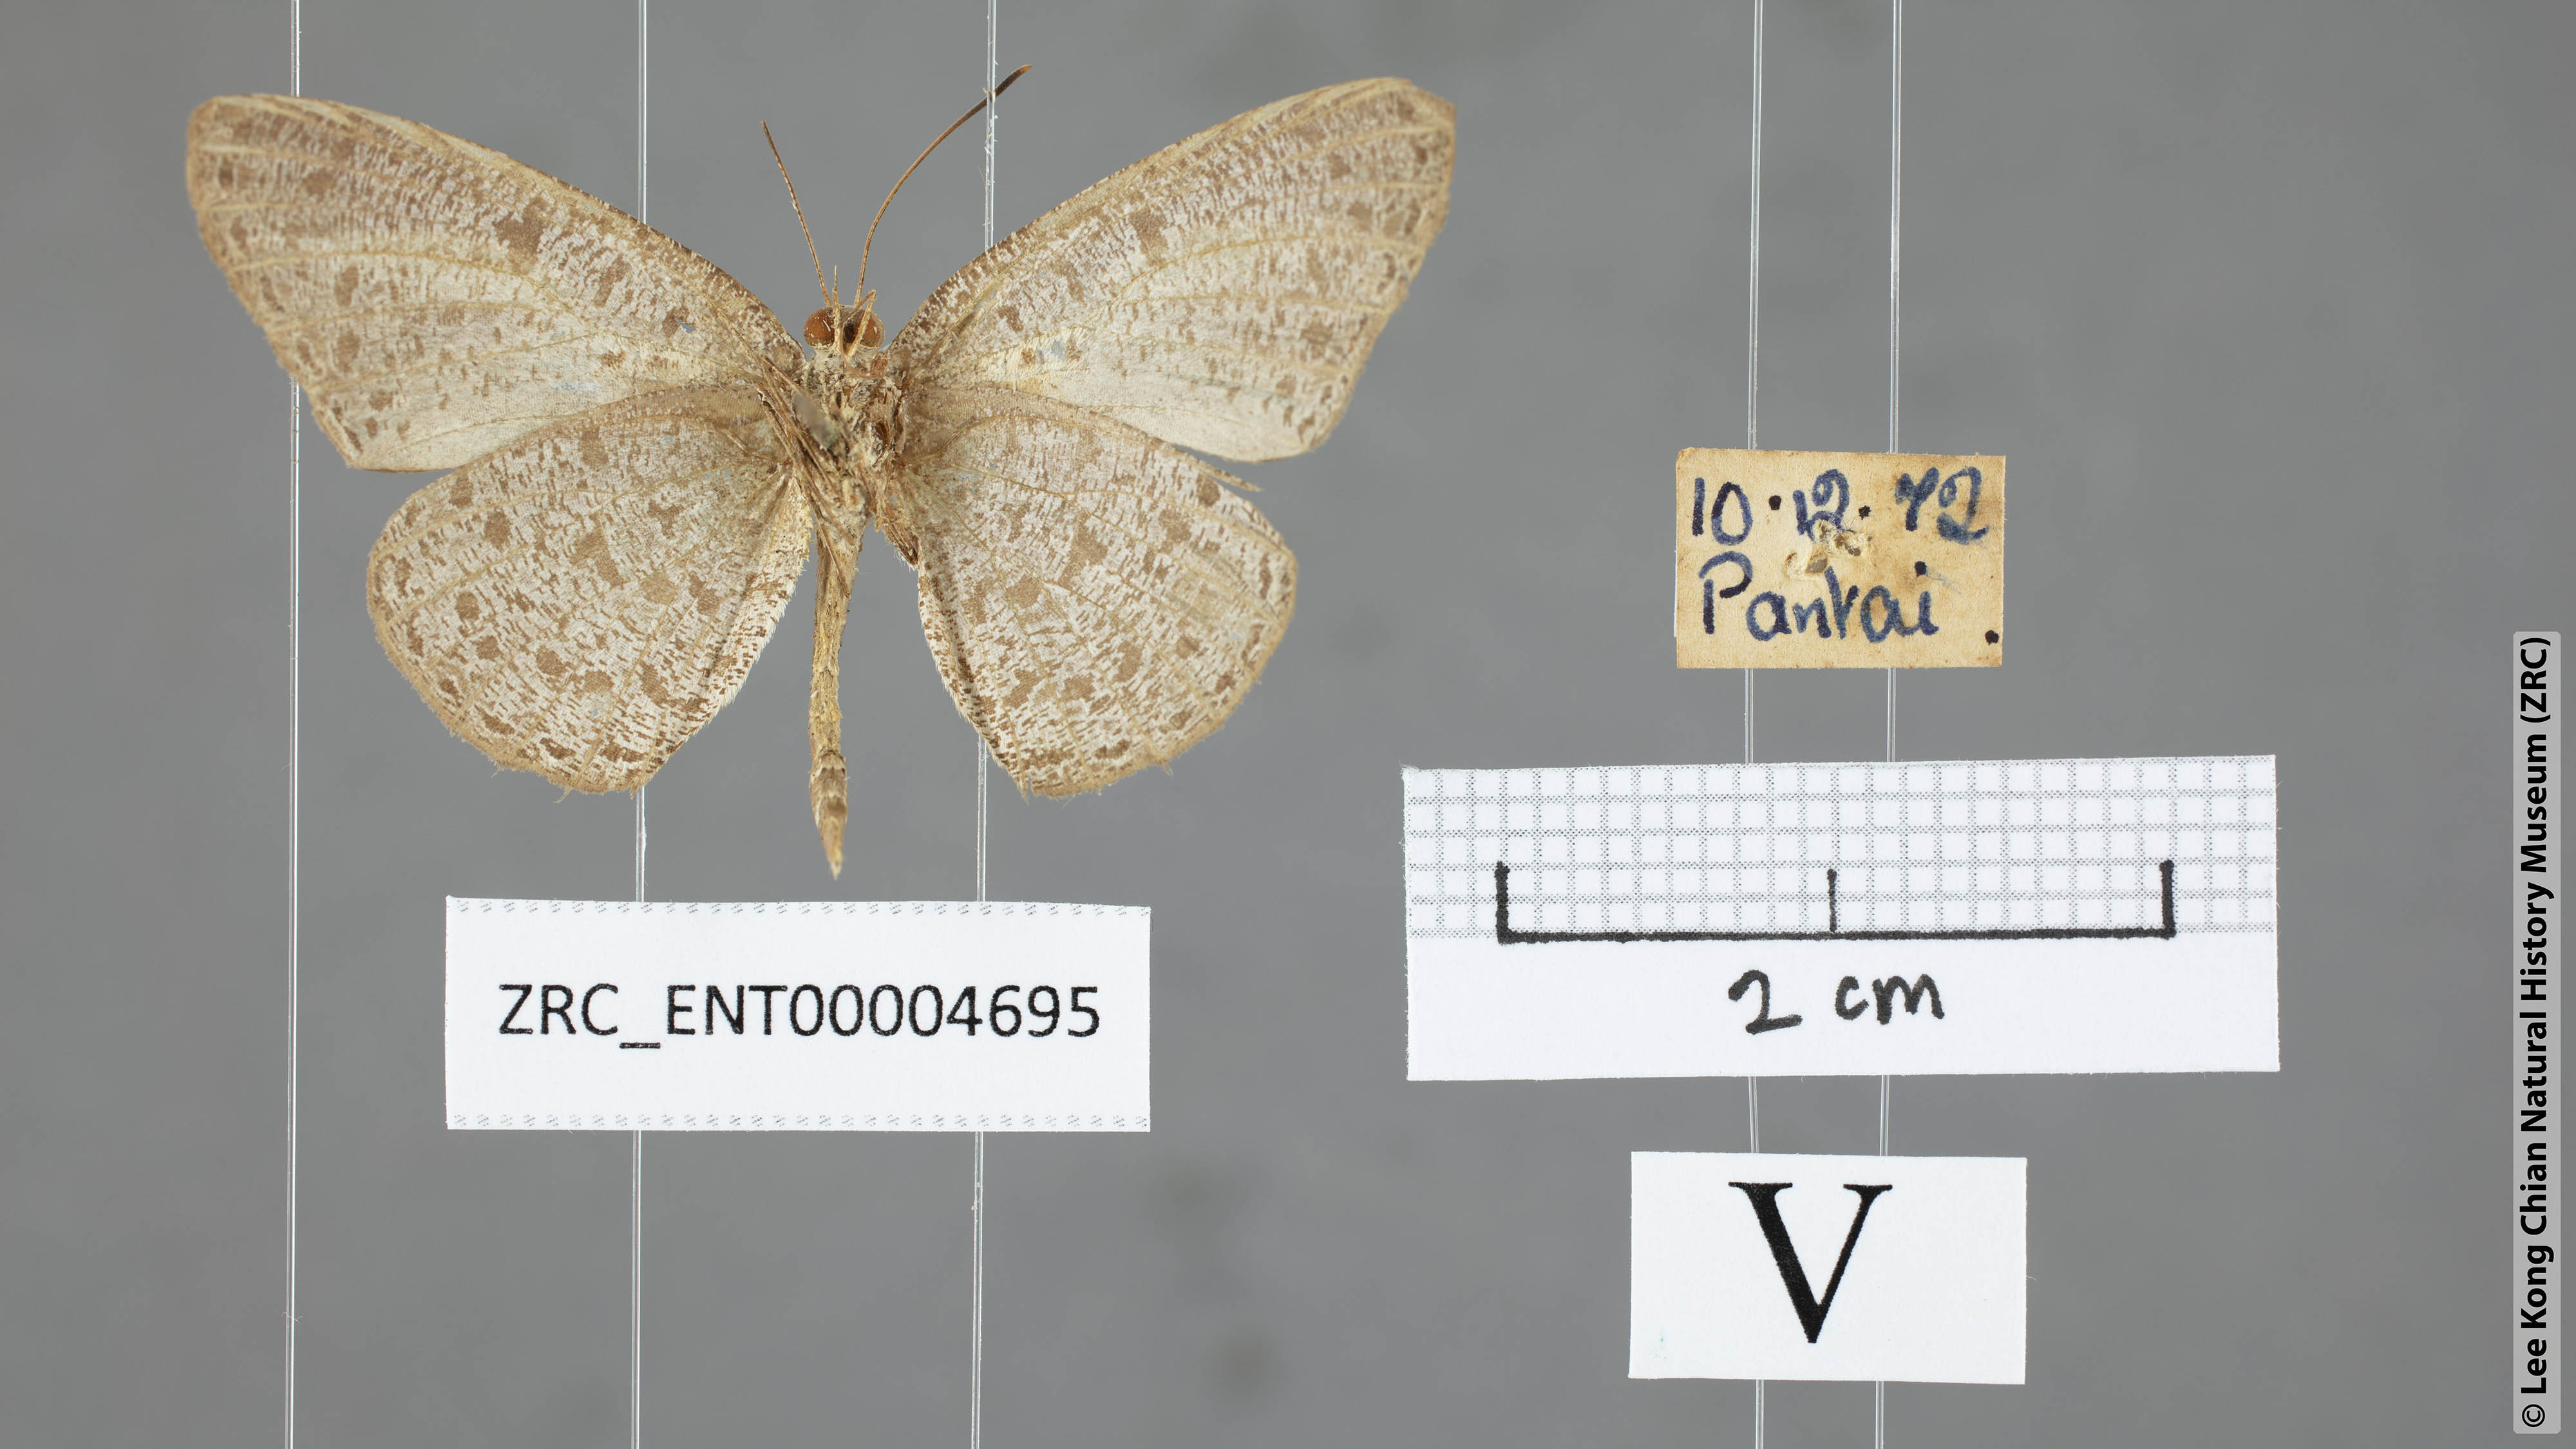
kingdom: Animalia
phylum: Arthropoda
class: Insecta
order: Lepidoptera
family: Lycaenidae
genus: Allotinus
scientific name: Allotinus leogoron
